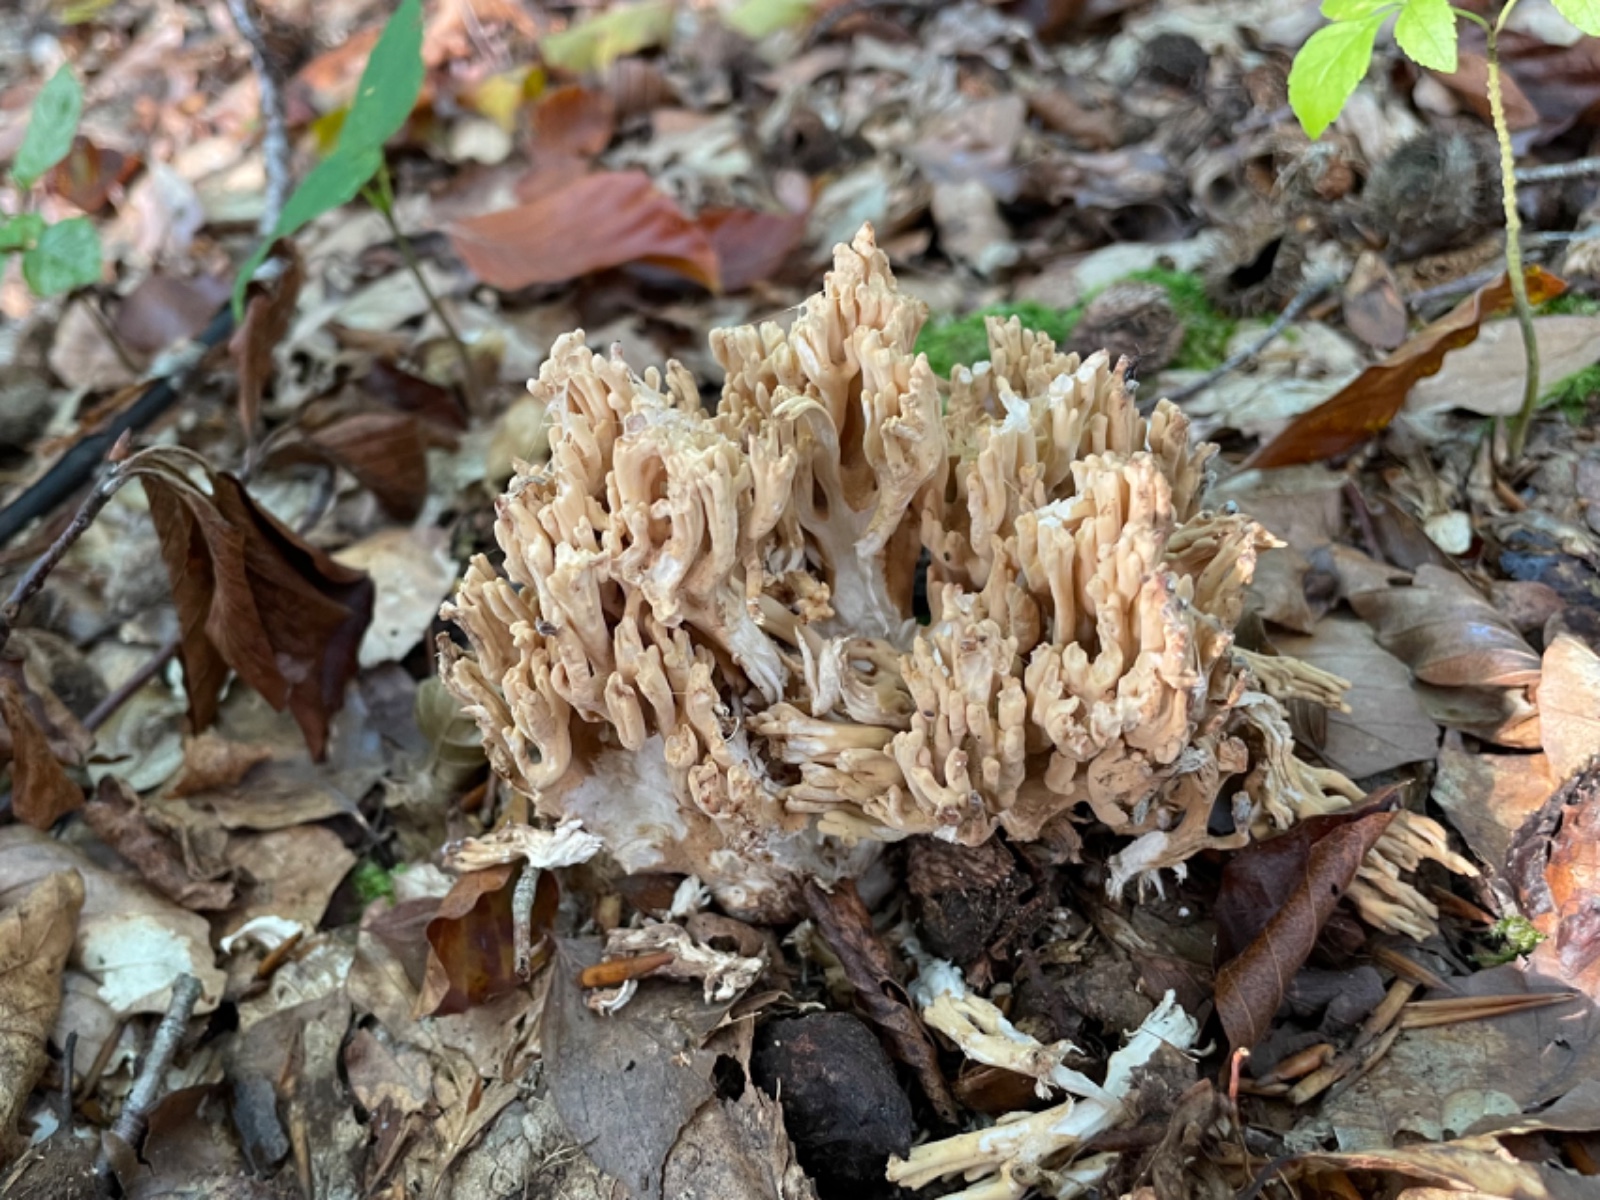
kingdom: Fungi
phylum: Basidiomycota
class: Agaricomycetes
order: Gomphales
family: Gomphaceae
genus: Ramaria
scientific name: Ramaria
